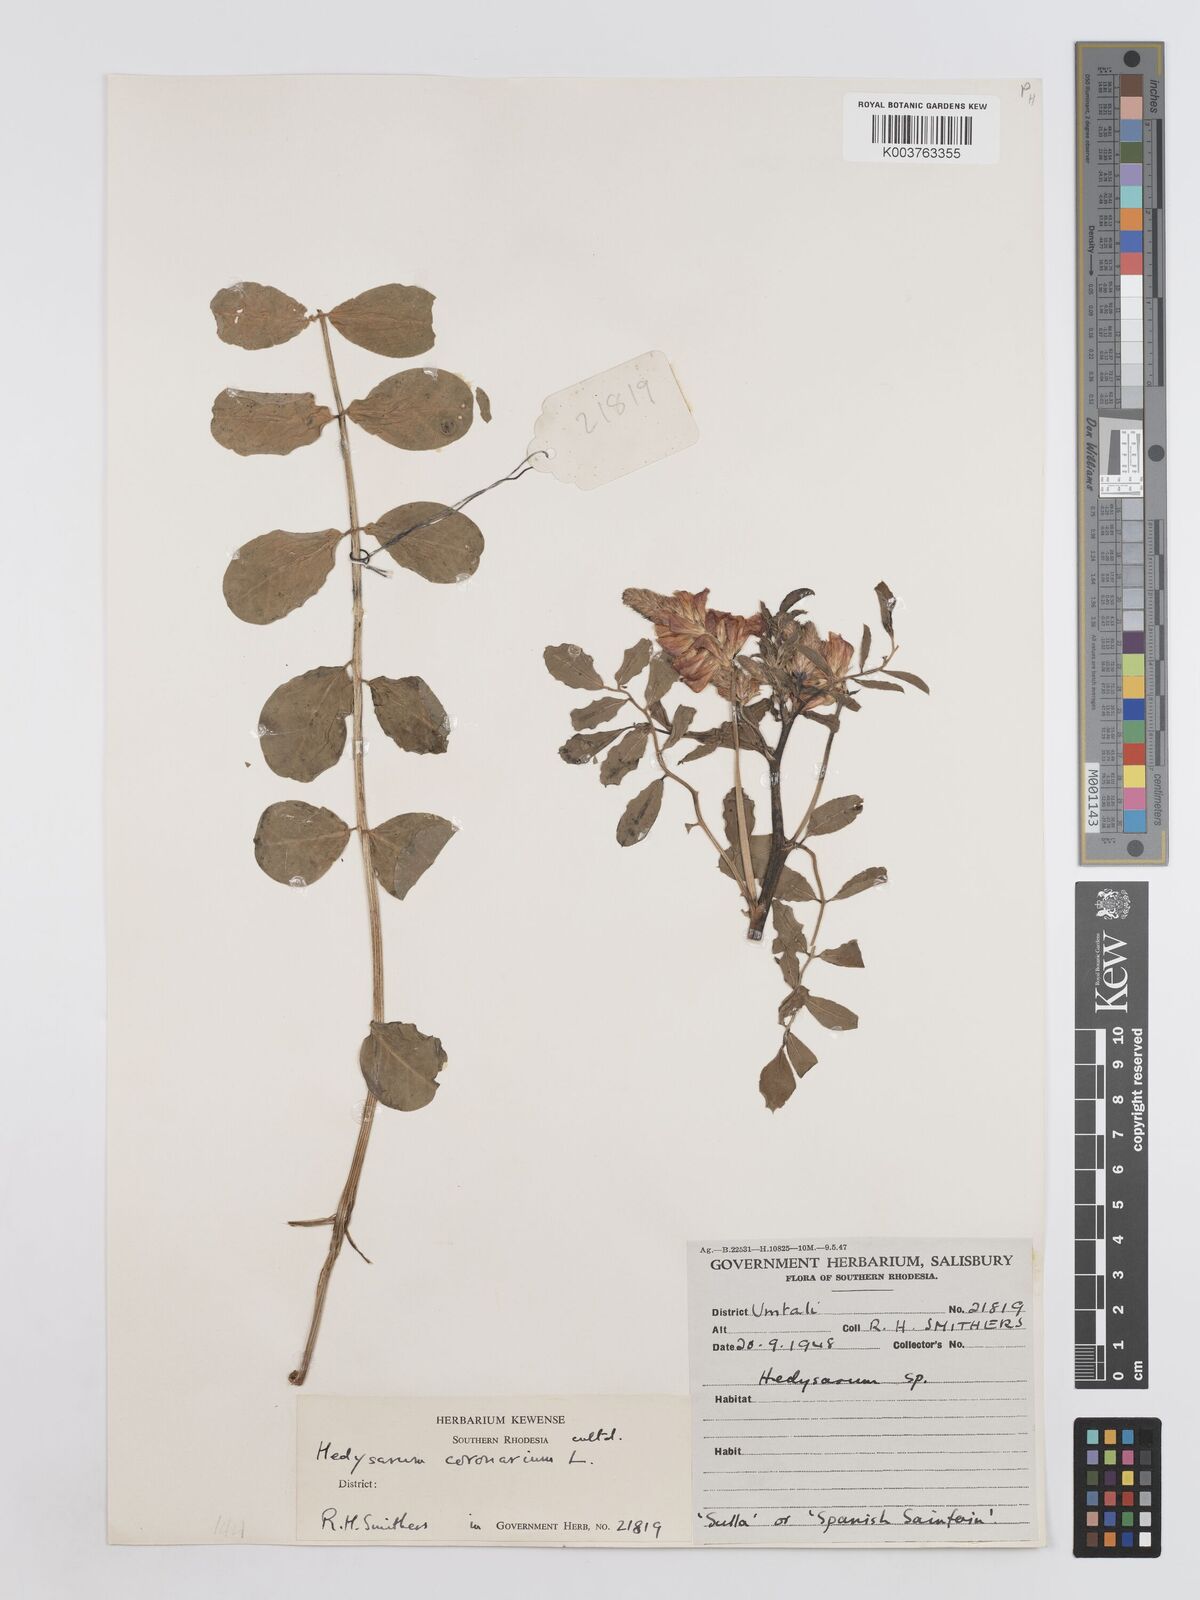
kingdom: Plantae
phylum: Tracheophyta
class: Magnoliopsida
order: Fabales
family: Fabaceae
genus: Sulla
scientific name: Sulla coronaria
